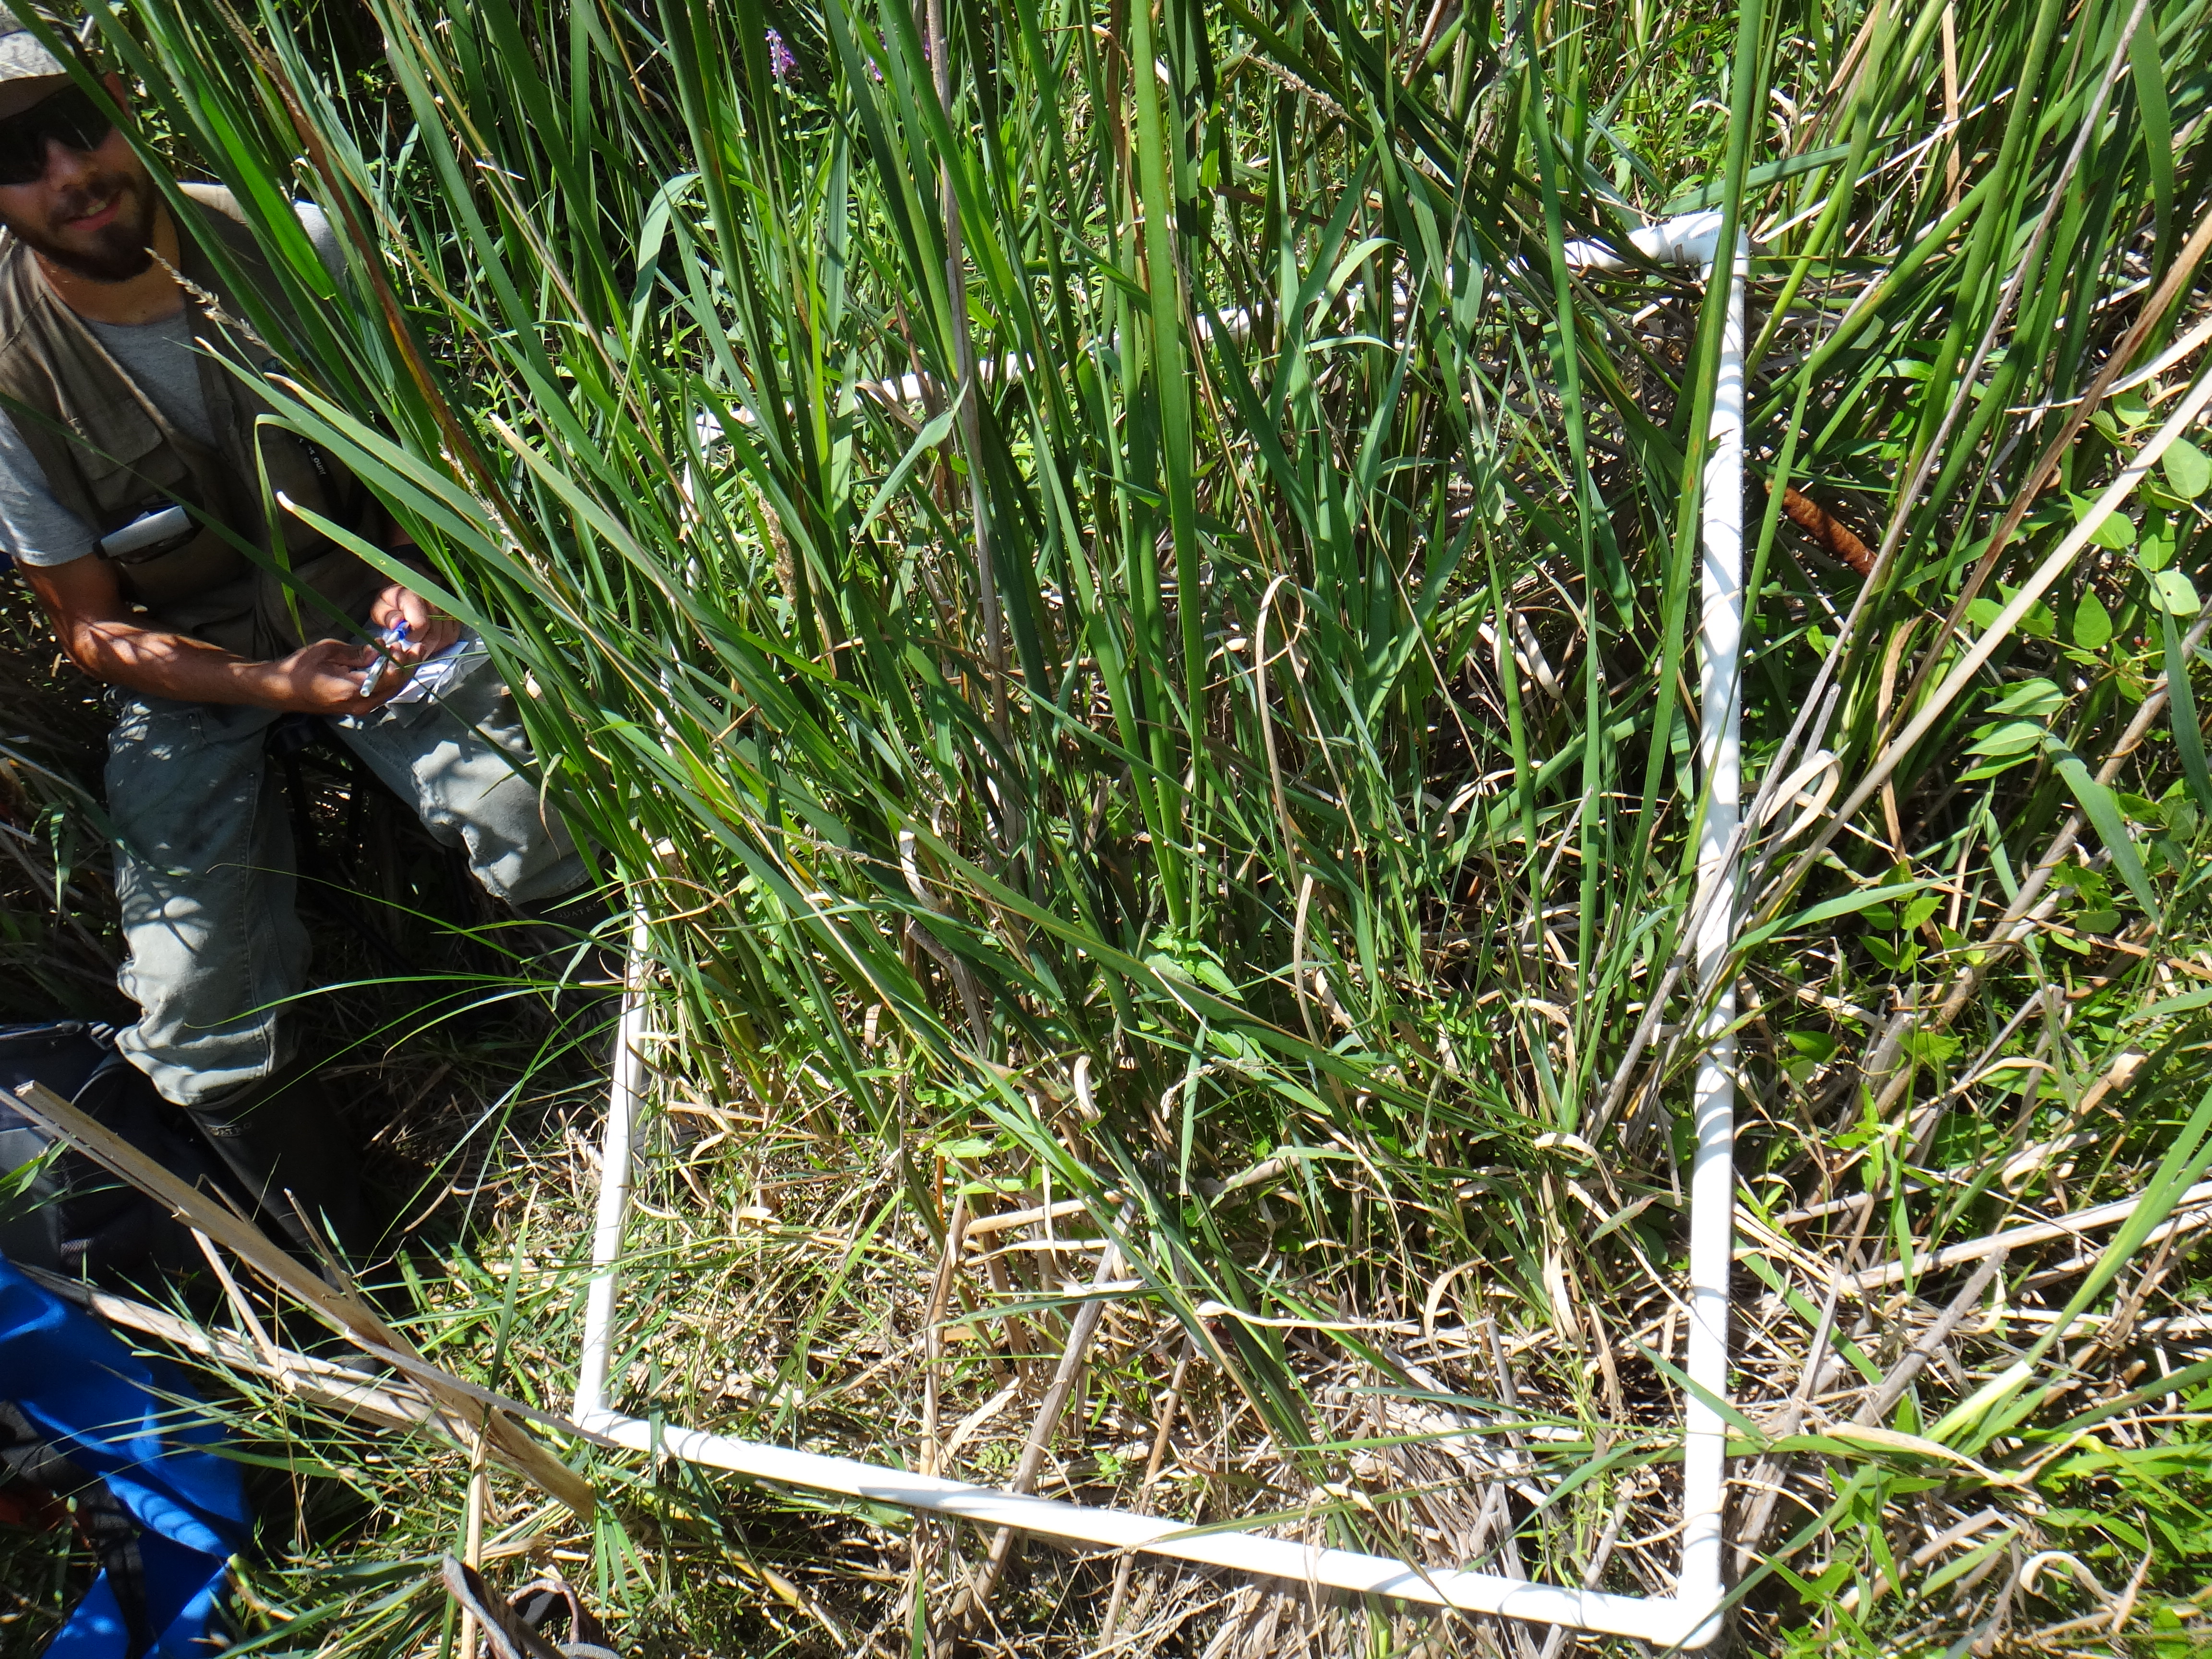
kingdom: Plantae
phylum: Tracheophyta
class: Magnoliopsida
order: Myrtales
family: Lythraceae
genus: Lythrum
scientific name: Lythrum salicaria
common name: Purple loosestrife
